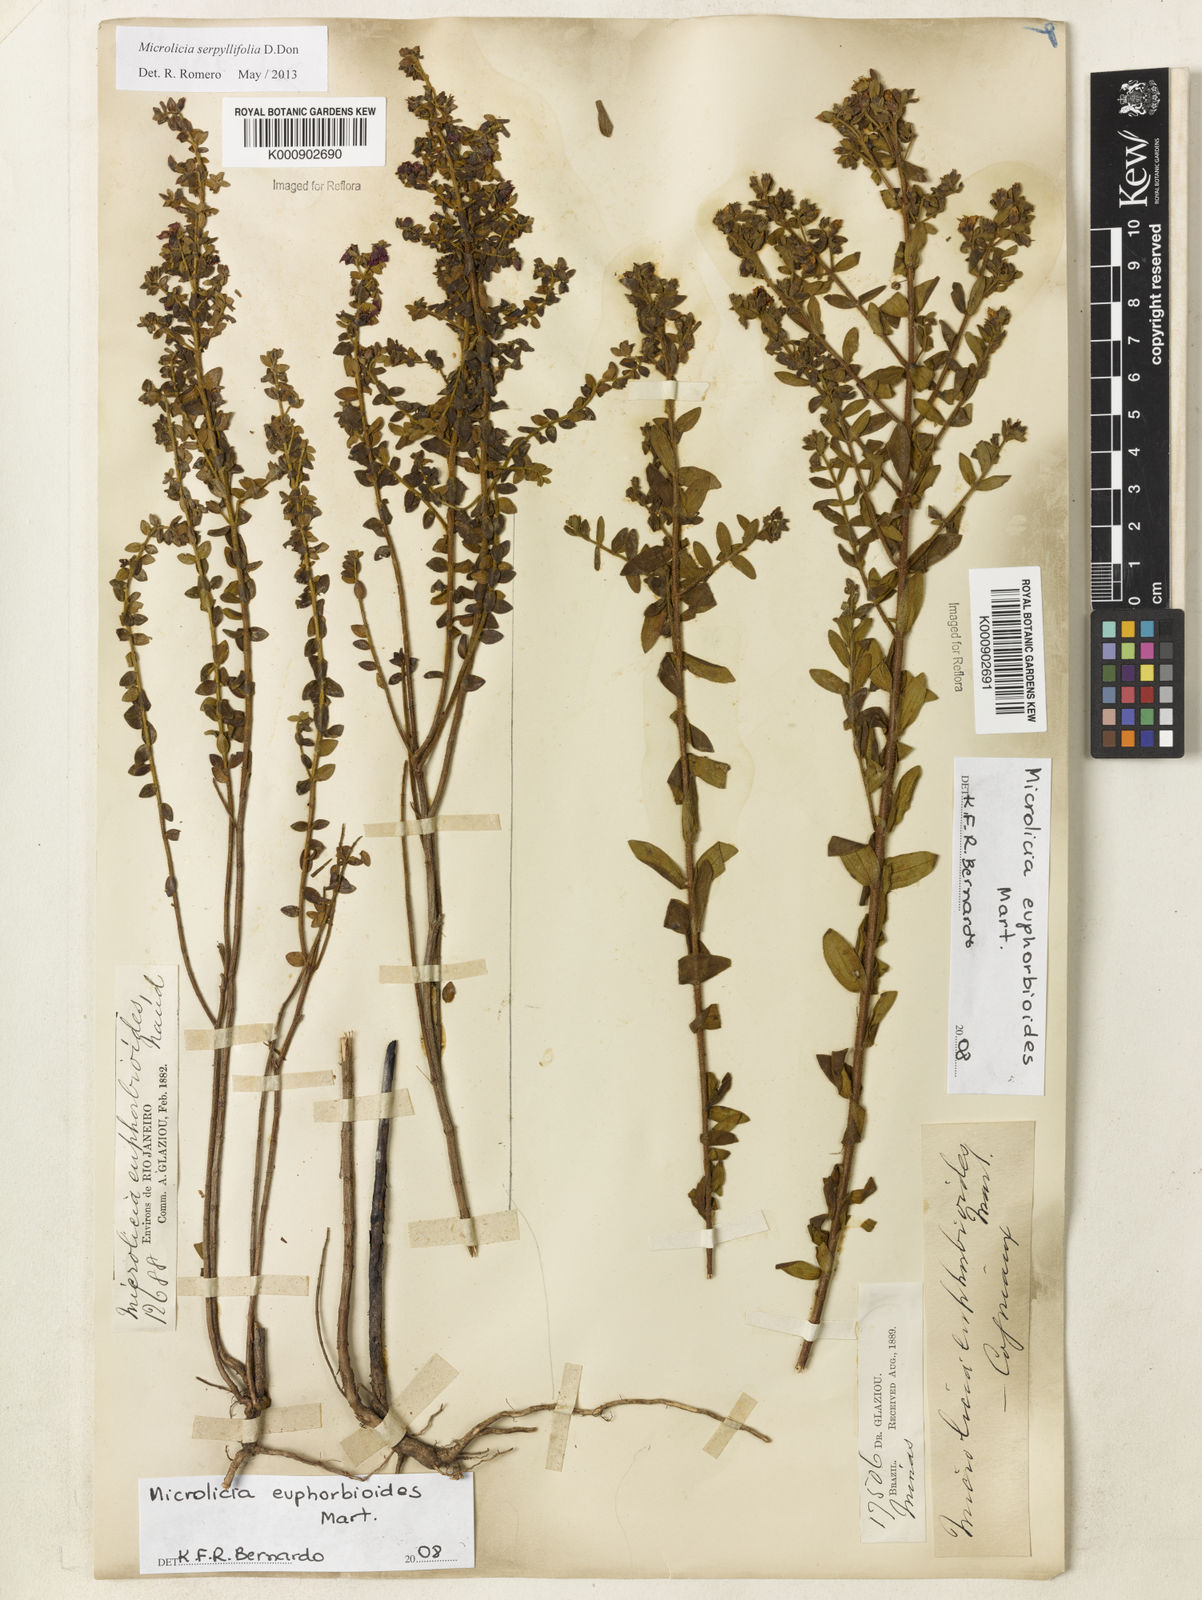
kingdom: Plantae
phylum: Tracheophyta
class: Magnoliopsida
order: Myrtales
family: Melastomataceae
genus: Microlicia
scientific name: Microlicia euphorbioides
